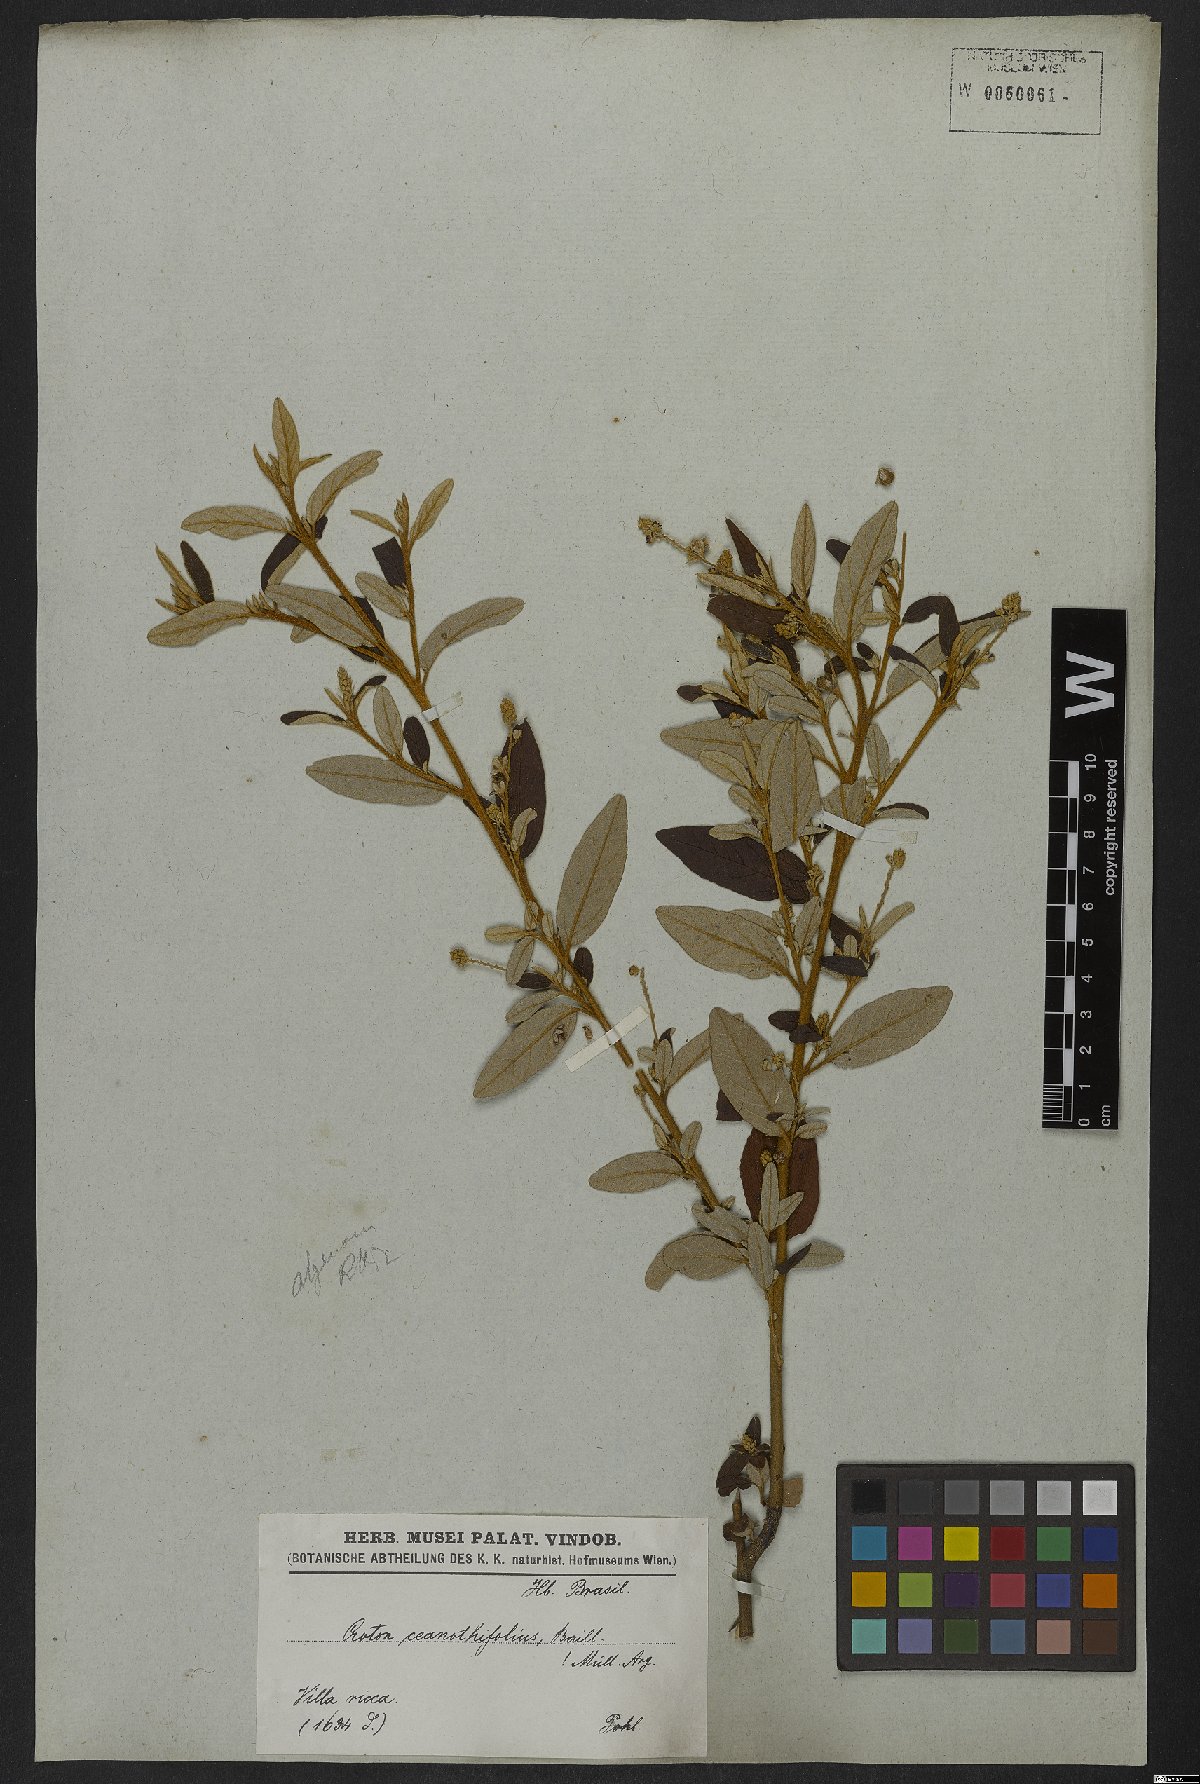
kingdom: Plantae
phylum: Tracheophyta
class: Magnoliopsida
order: Malpighiales
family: Euphorbiaceae
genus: Croton
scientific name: Croton ceanothifolius
